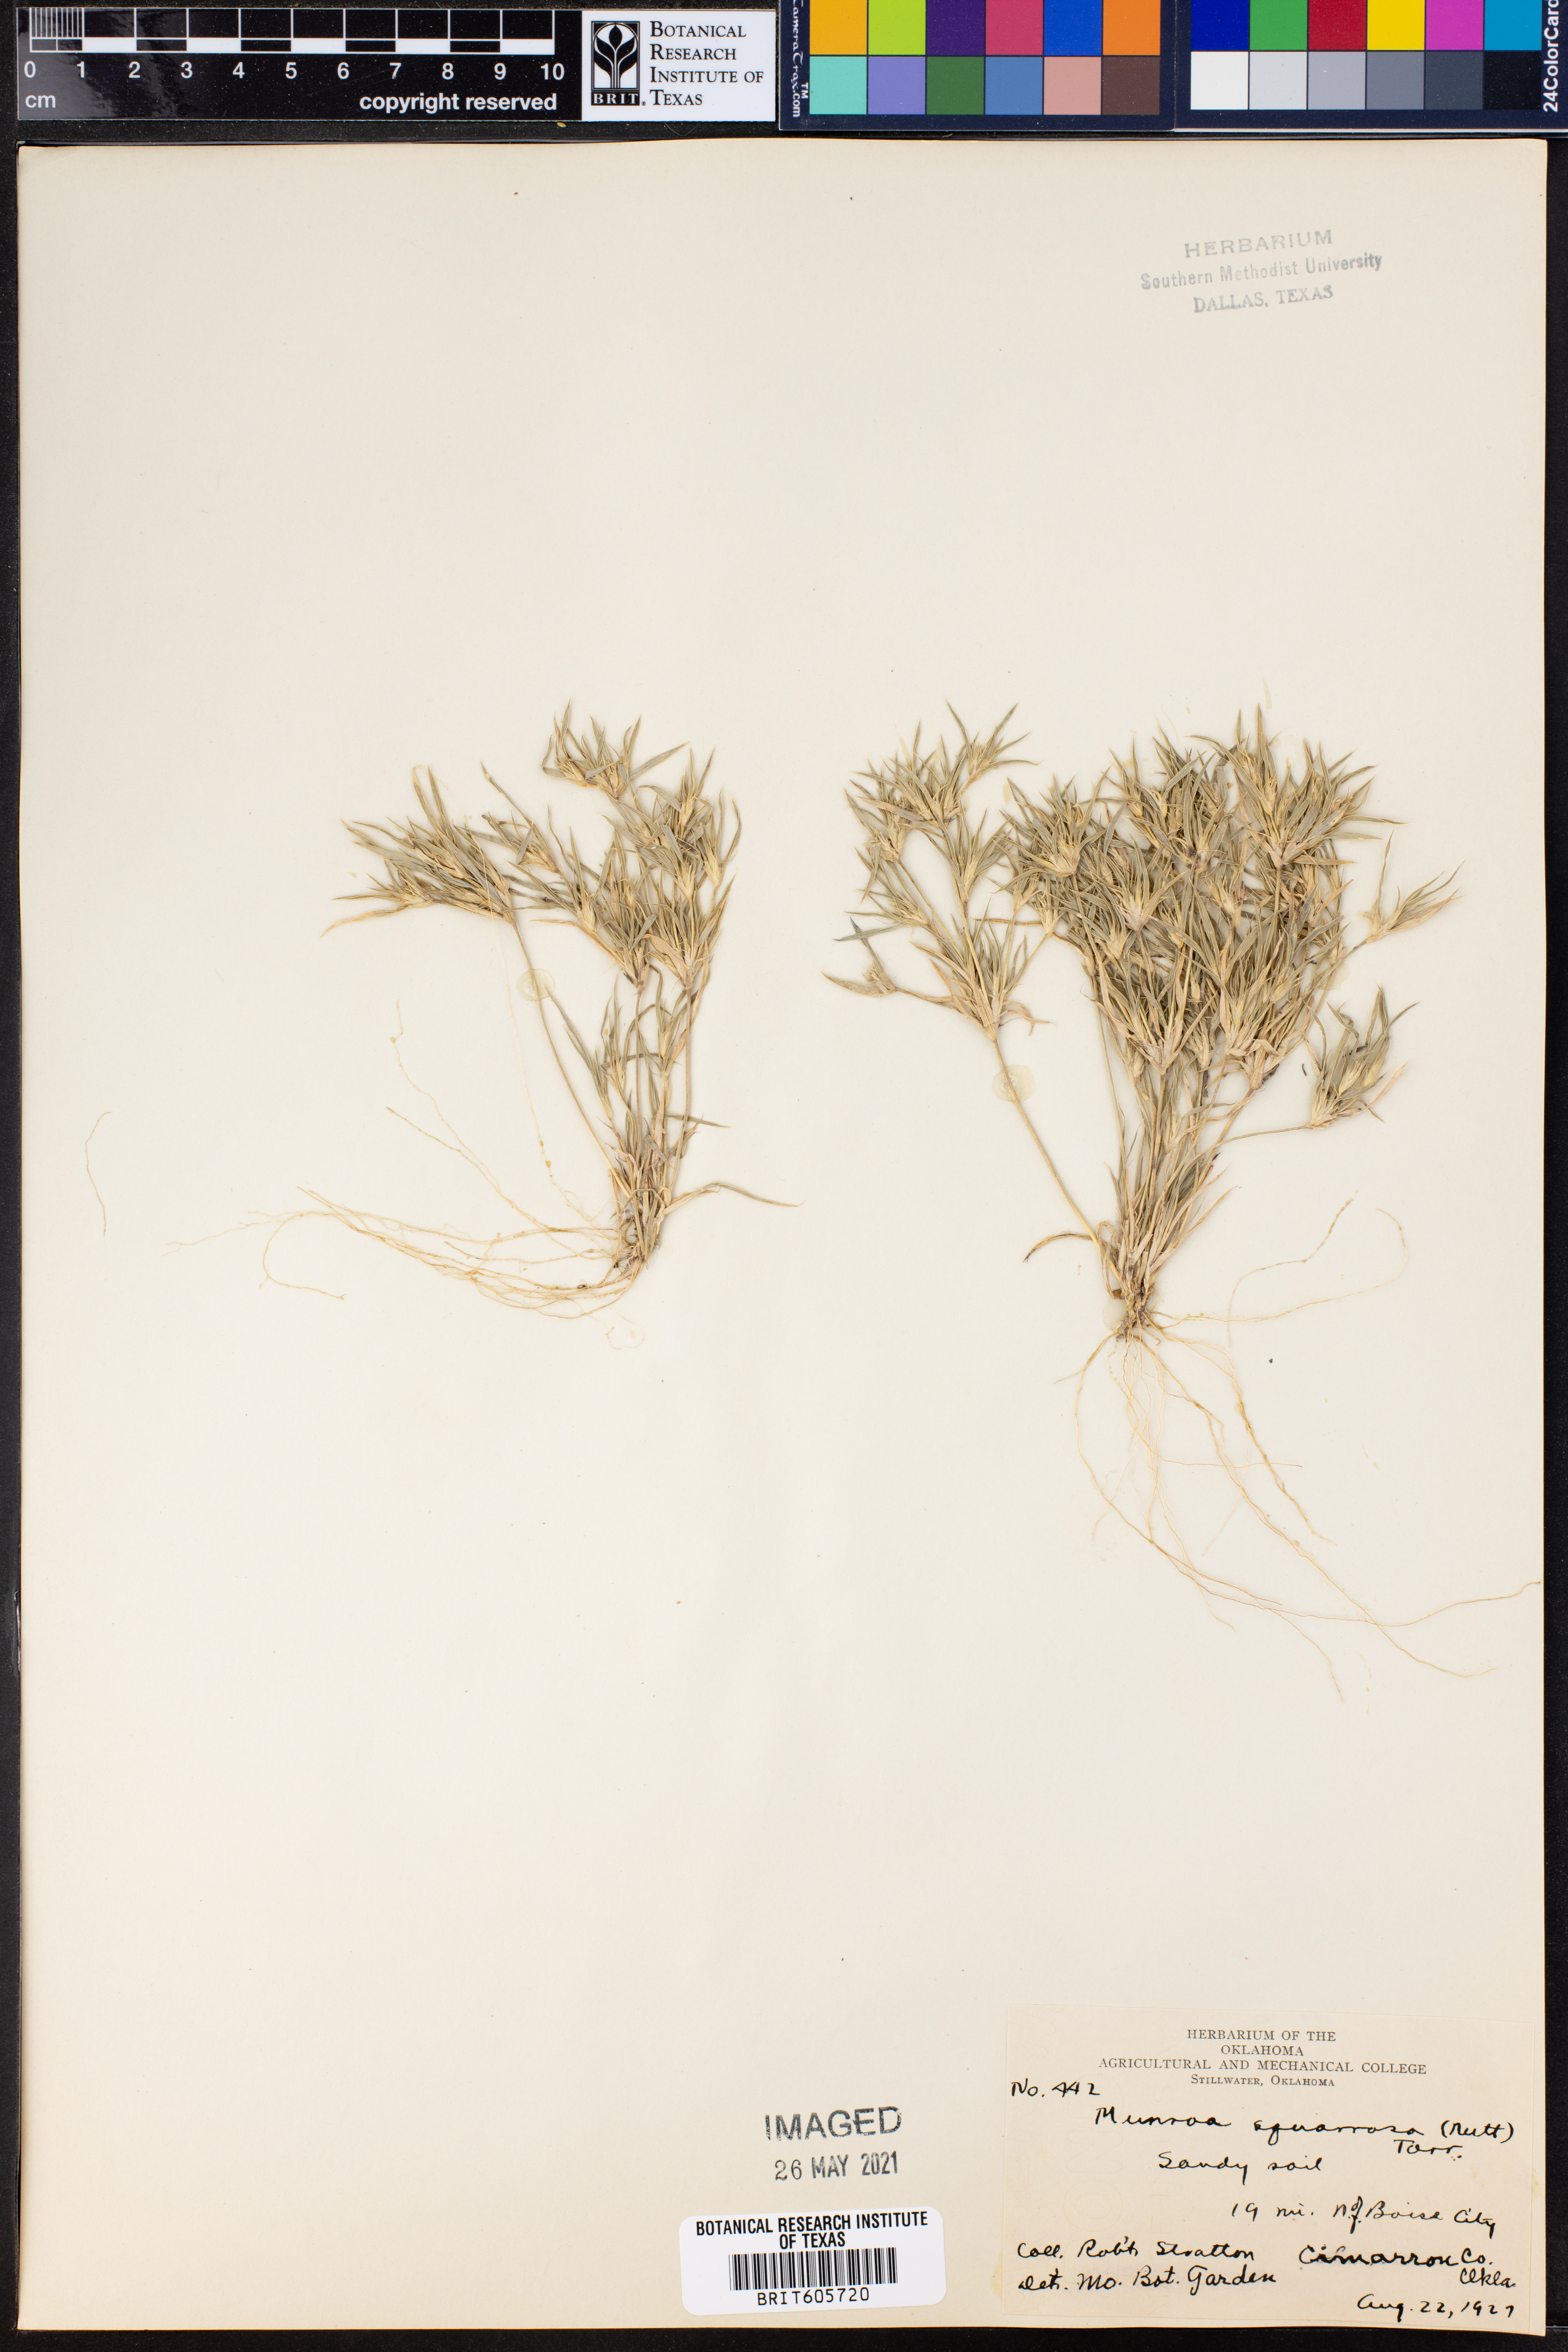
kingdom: Plantae
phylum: Tracheophyta
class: Liliopsida
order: Poales
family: Poaceae
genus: Munroa
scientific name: Munroa squarrosa
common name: False buffalo grass
